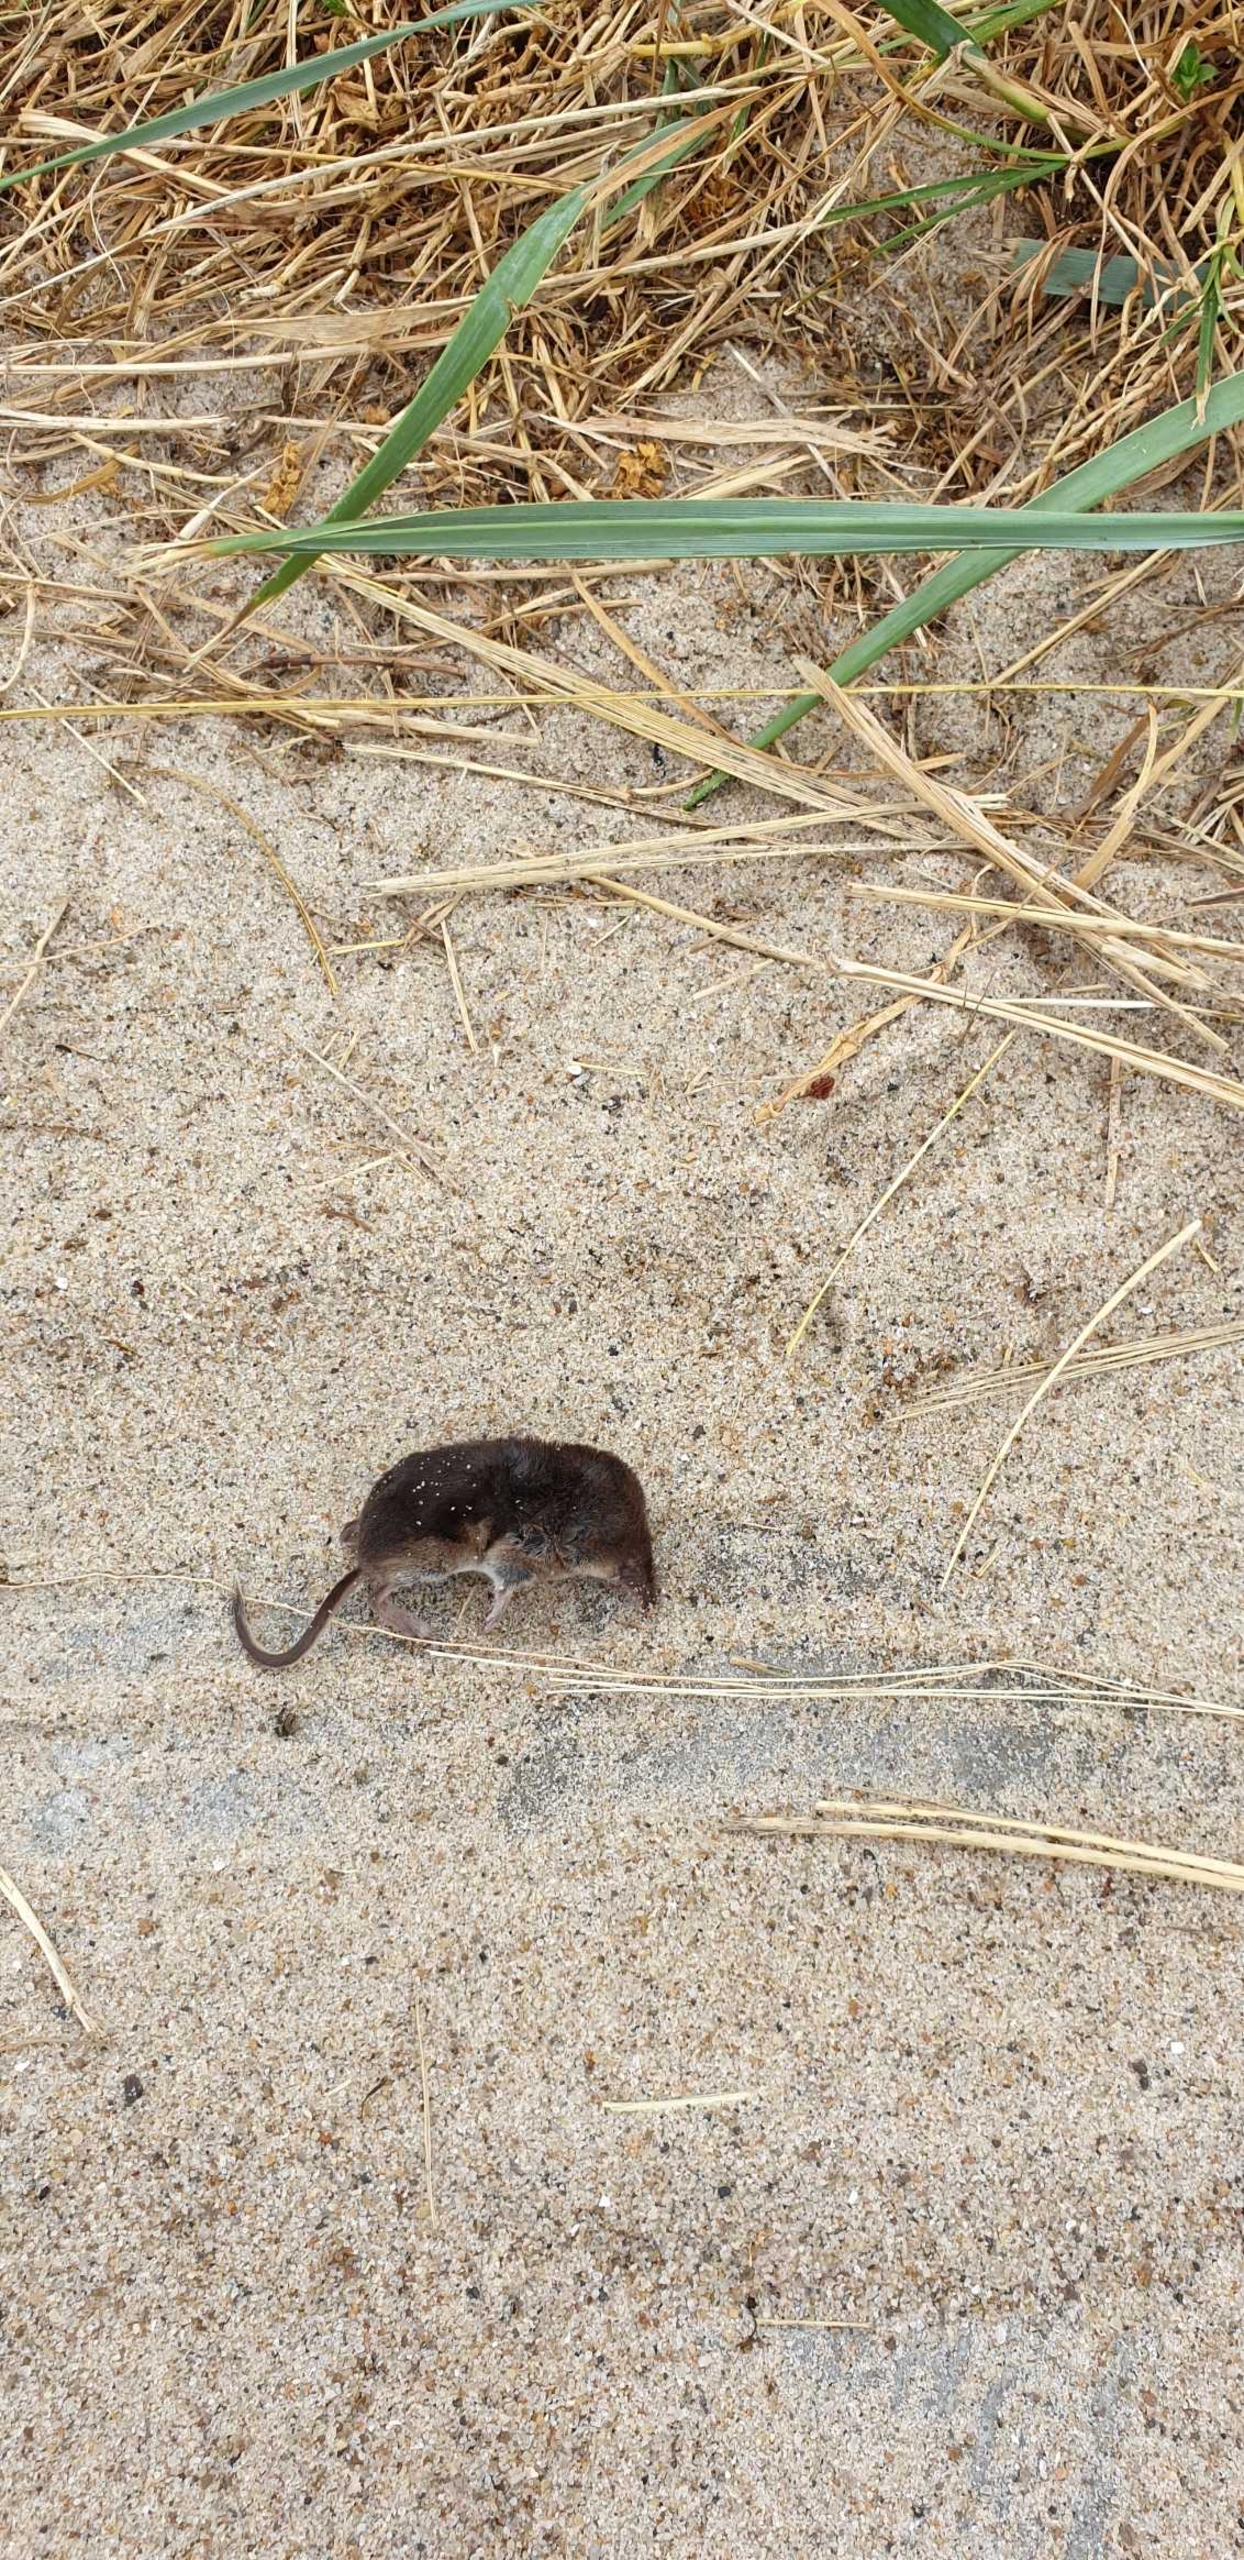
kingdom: Animalia
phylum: Chordata
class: Mammalia
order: Soricomorpha
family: Soricidae
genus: Sorex
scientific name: Sorex araneus
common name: Almindelig spidsmus
